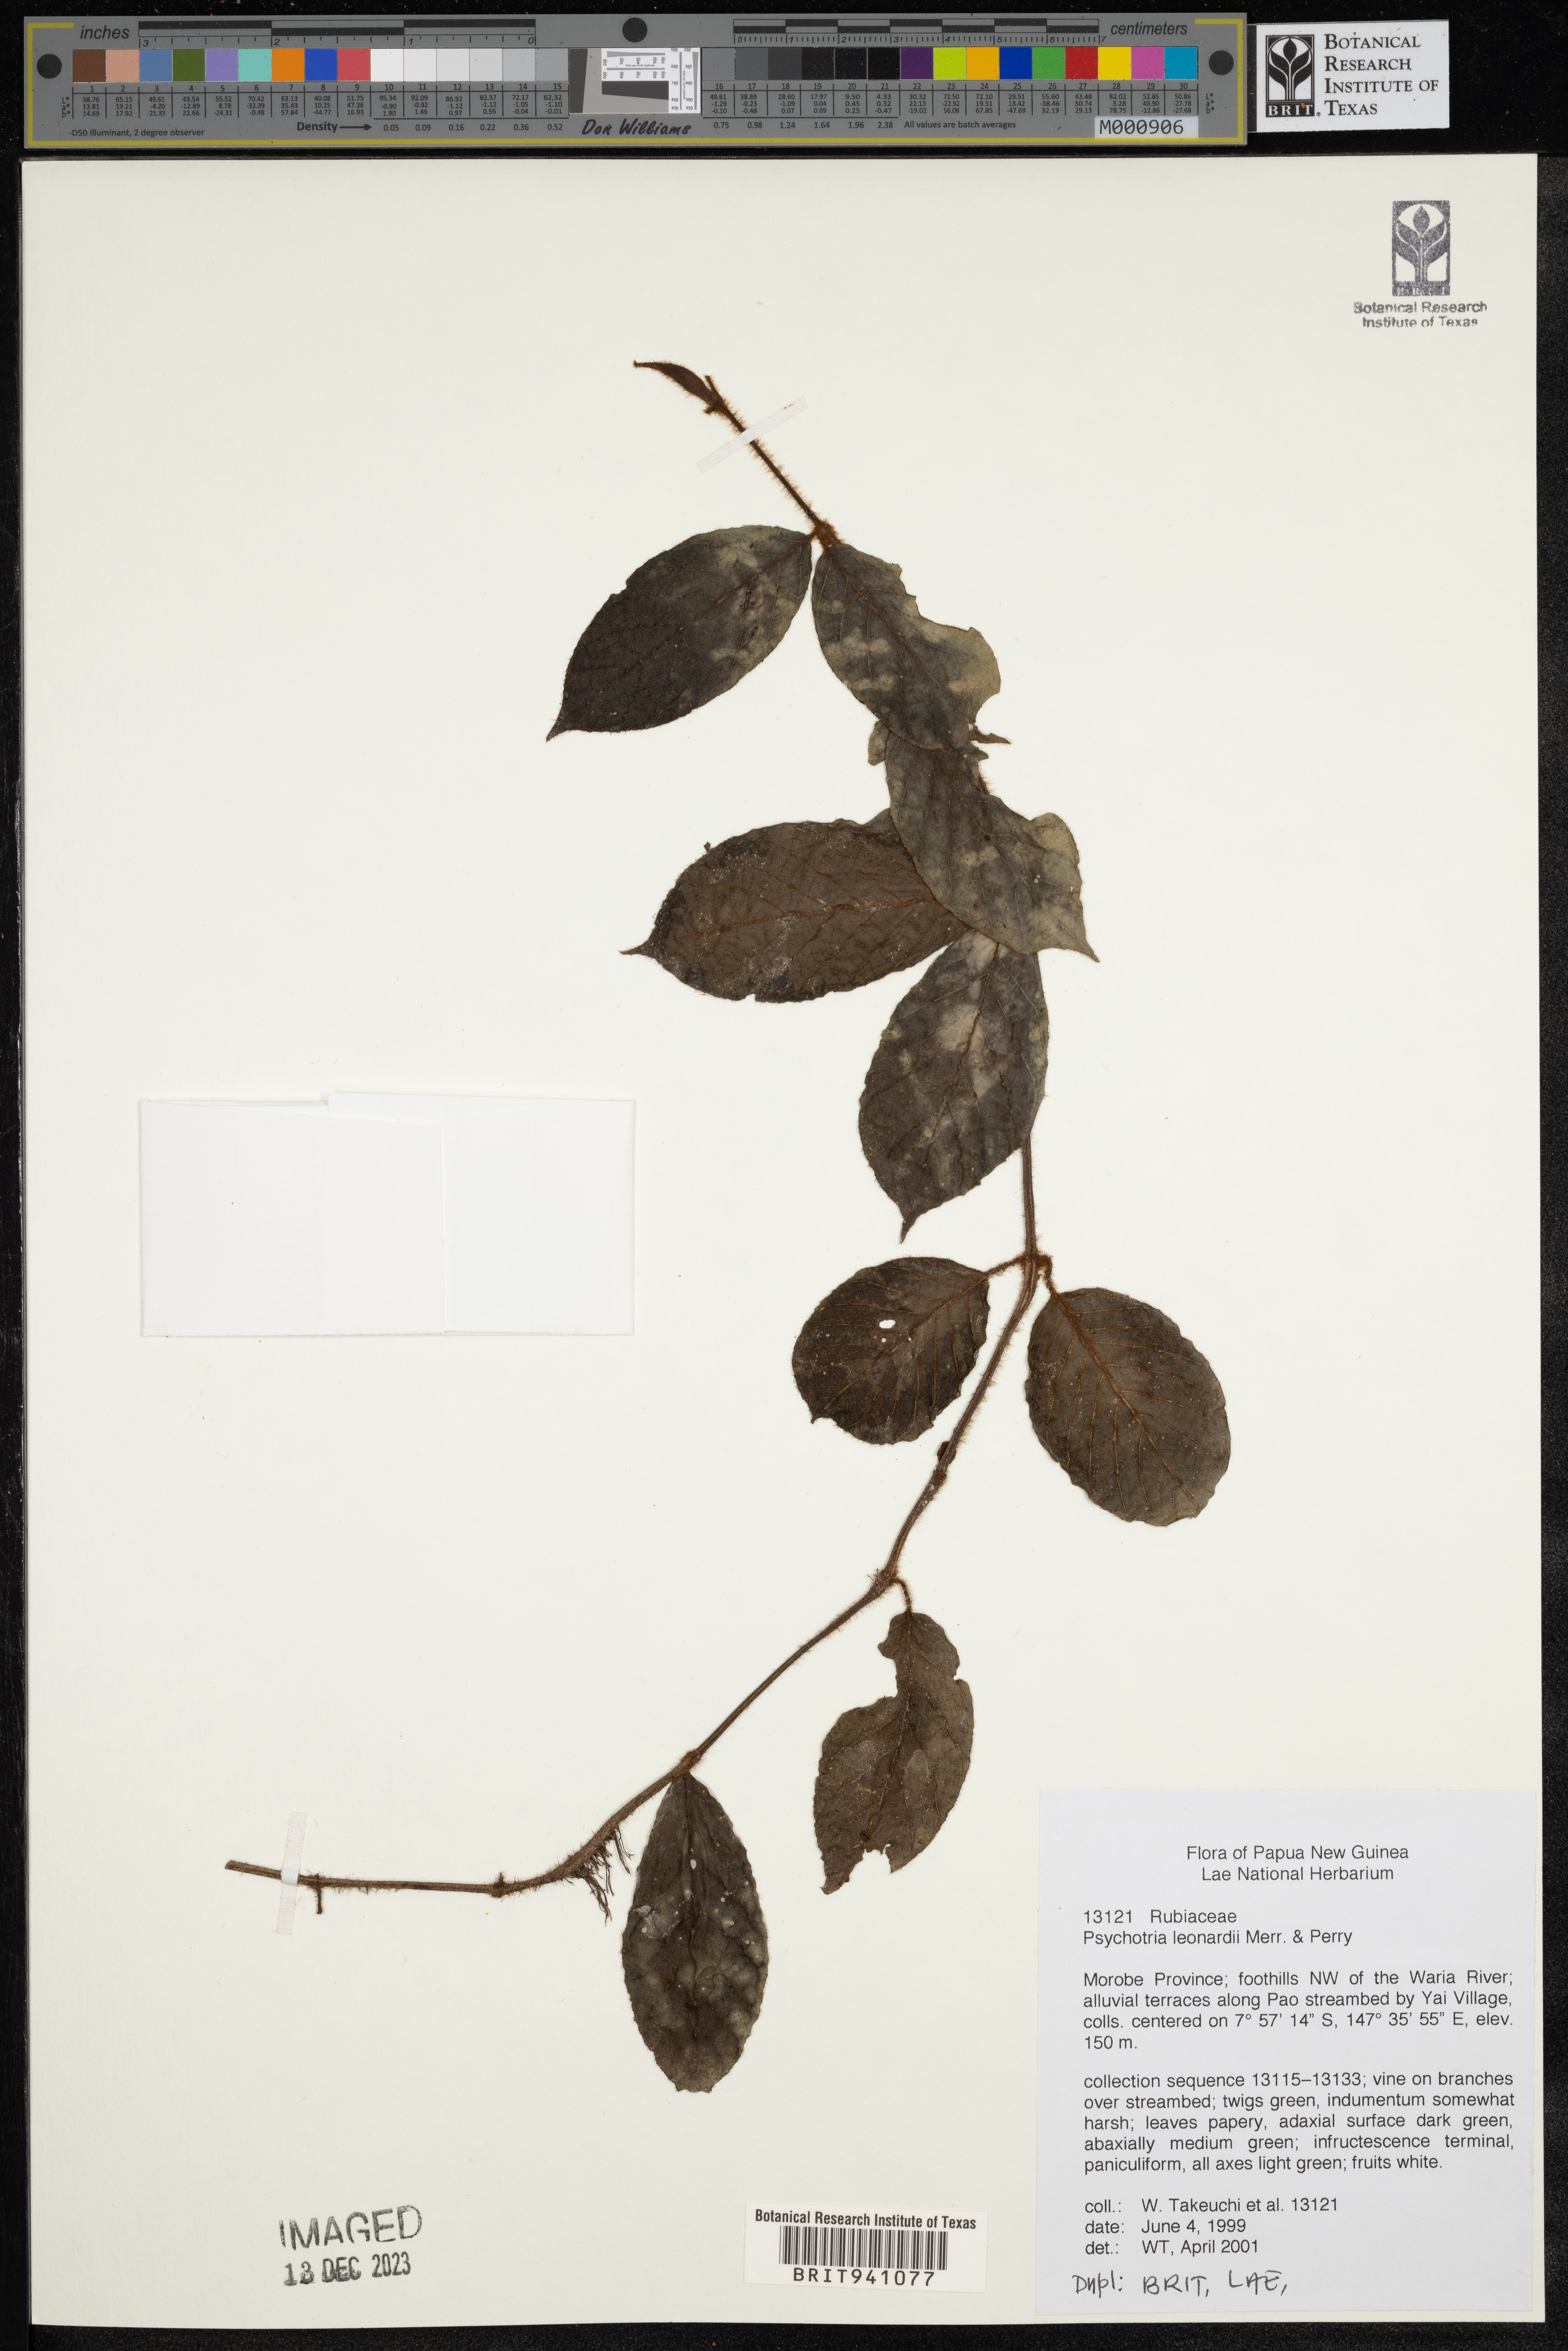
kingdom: Plantae
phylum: Tracheophyta
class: Magnoliopsida
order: Gentianales
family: Rubiaceae
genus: Psychotria
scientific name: Psychotria leonardiana
